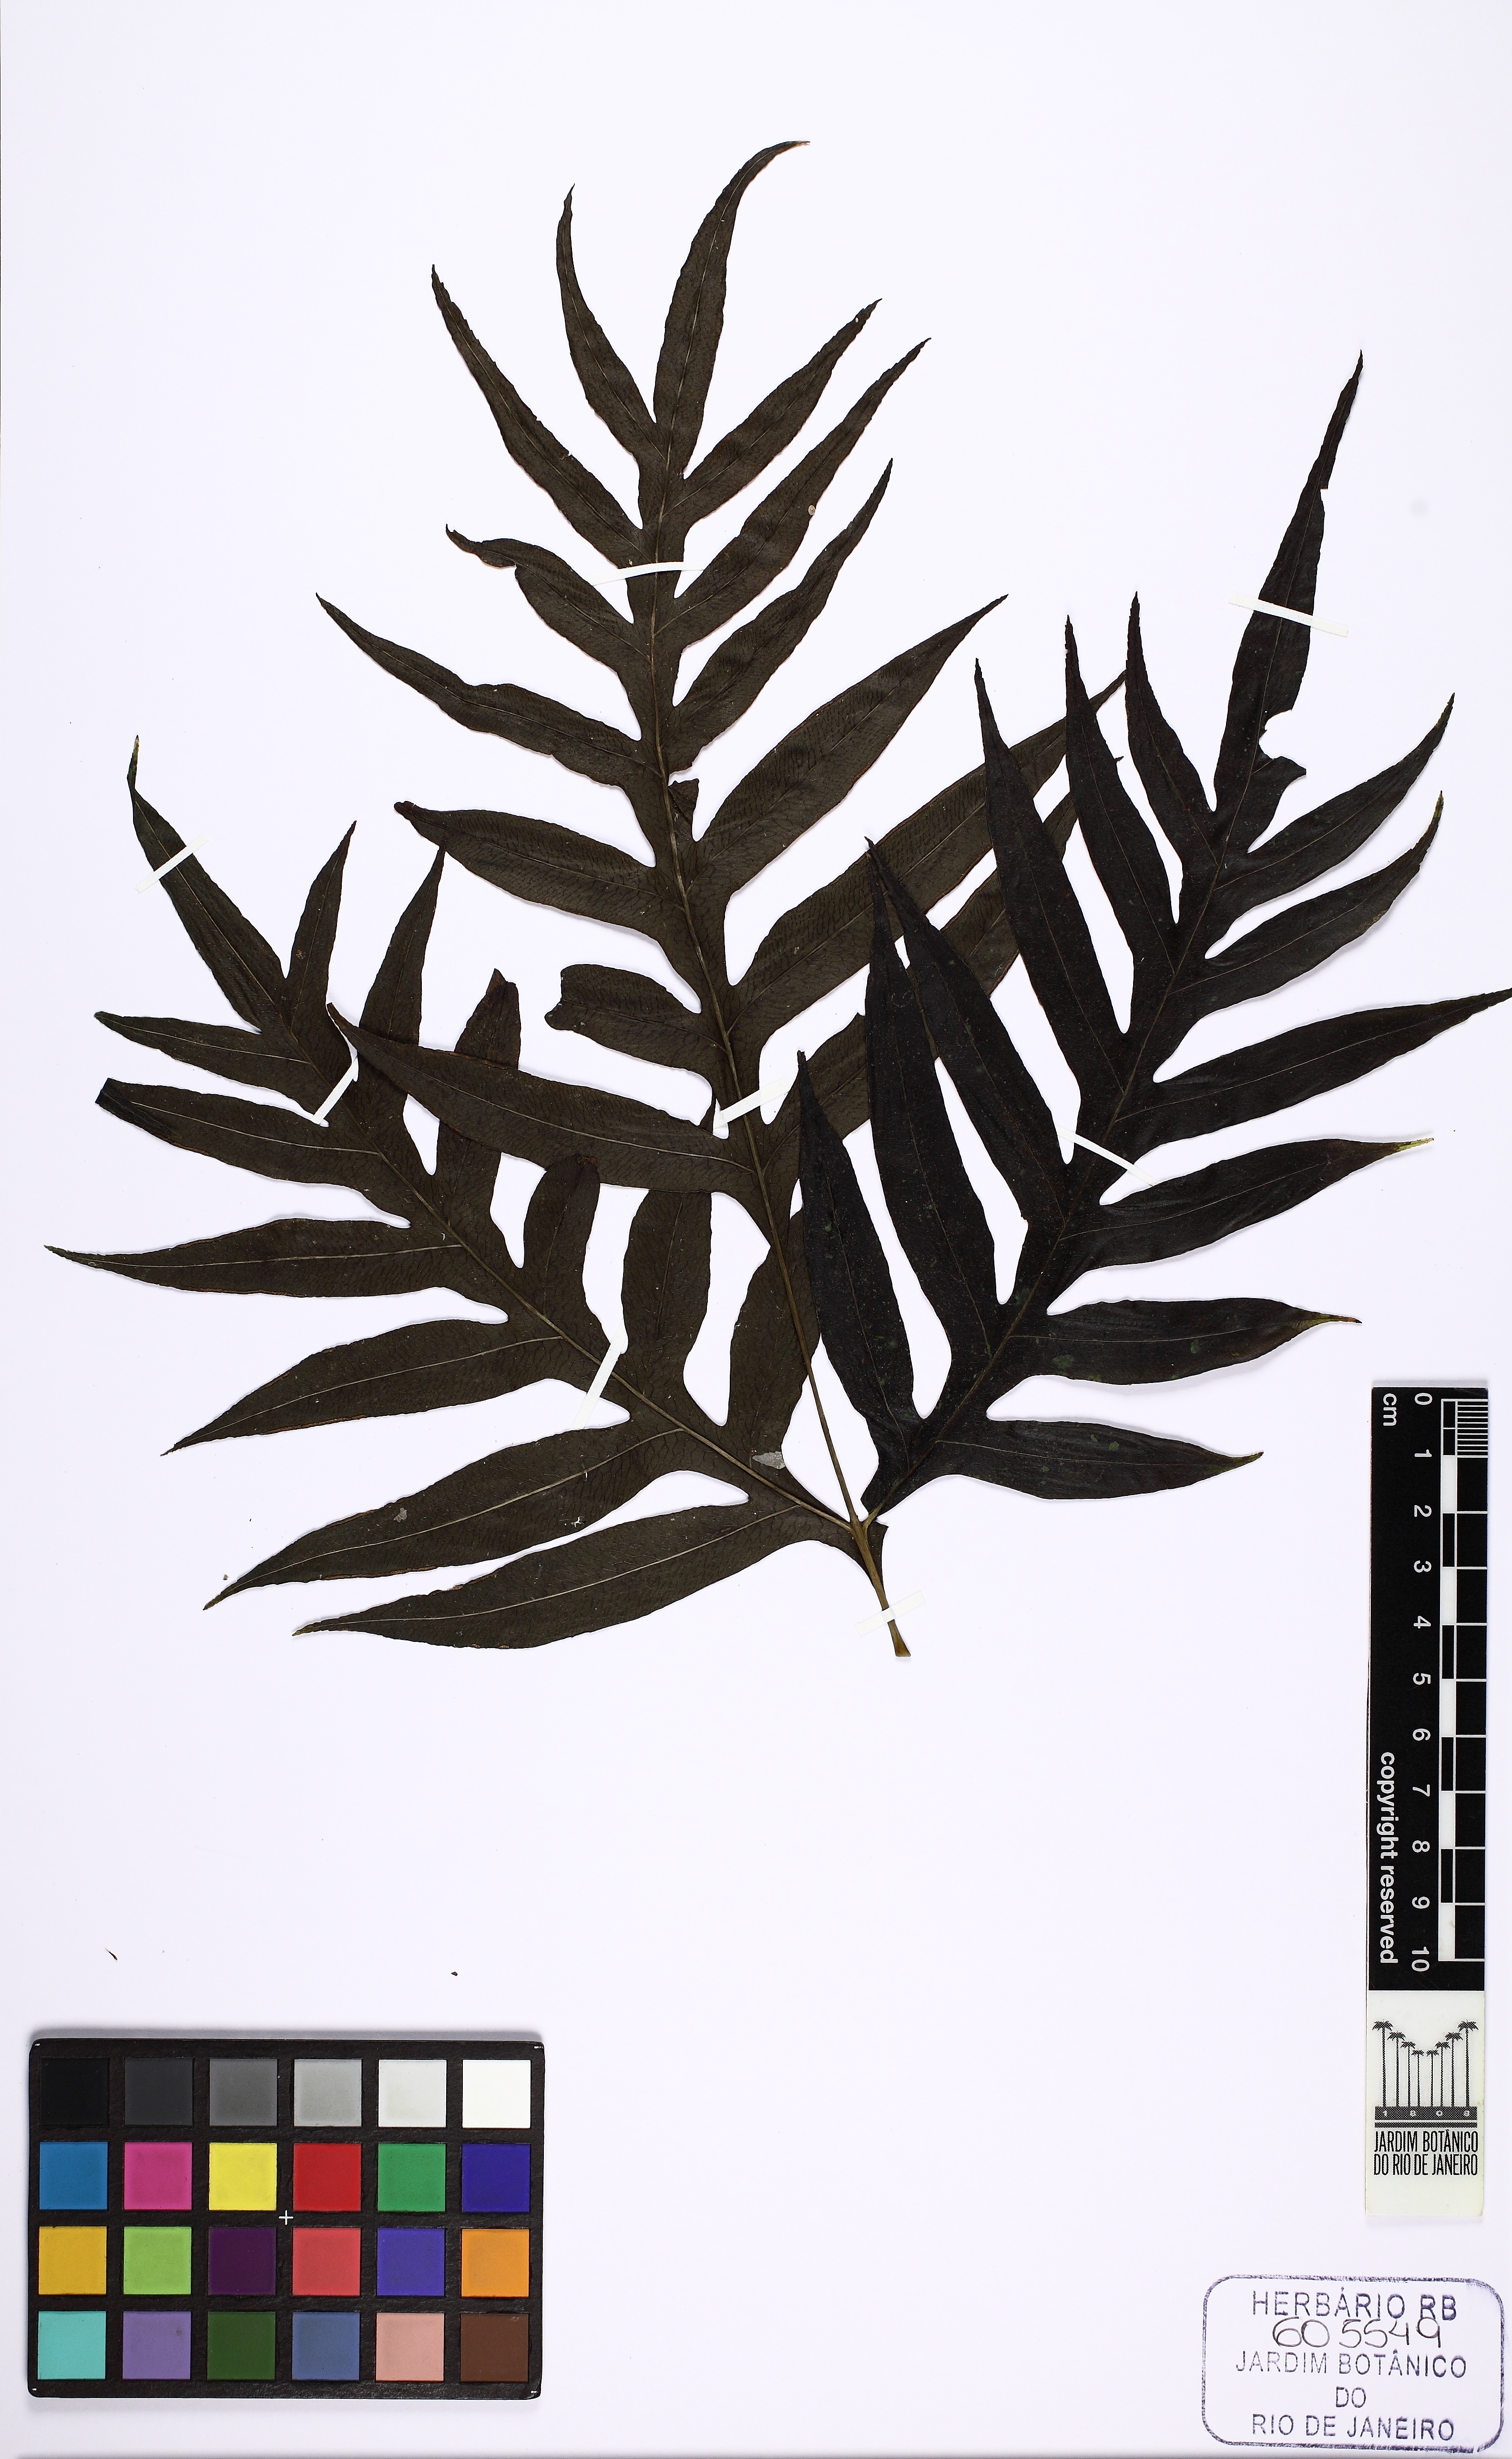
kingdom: Plantae
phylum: Tracheophyta
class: Polypodiopsida
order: Polypodiales
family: Pteridaceae
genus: Pteris
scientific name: Pteris angustata
